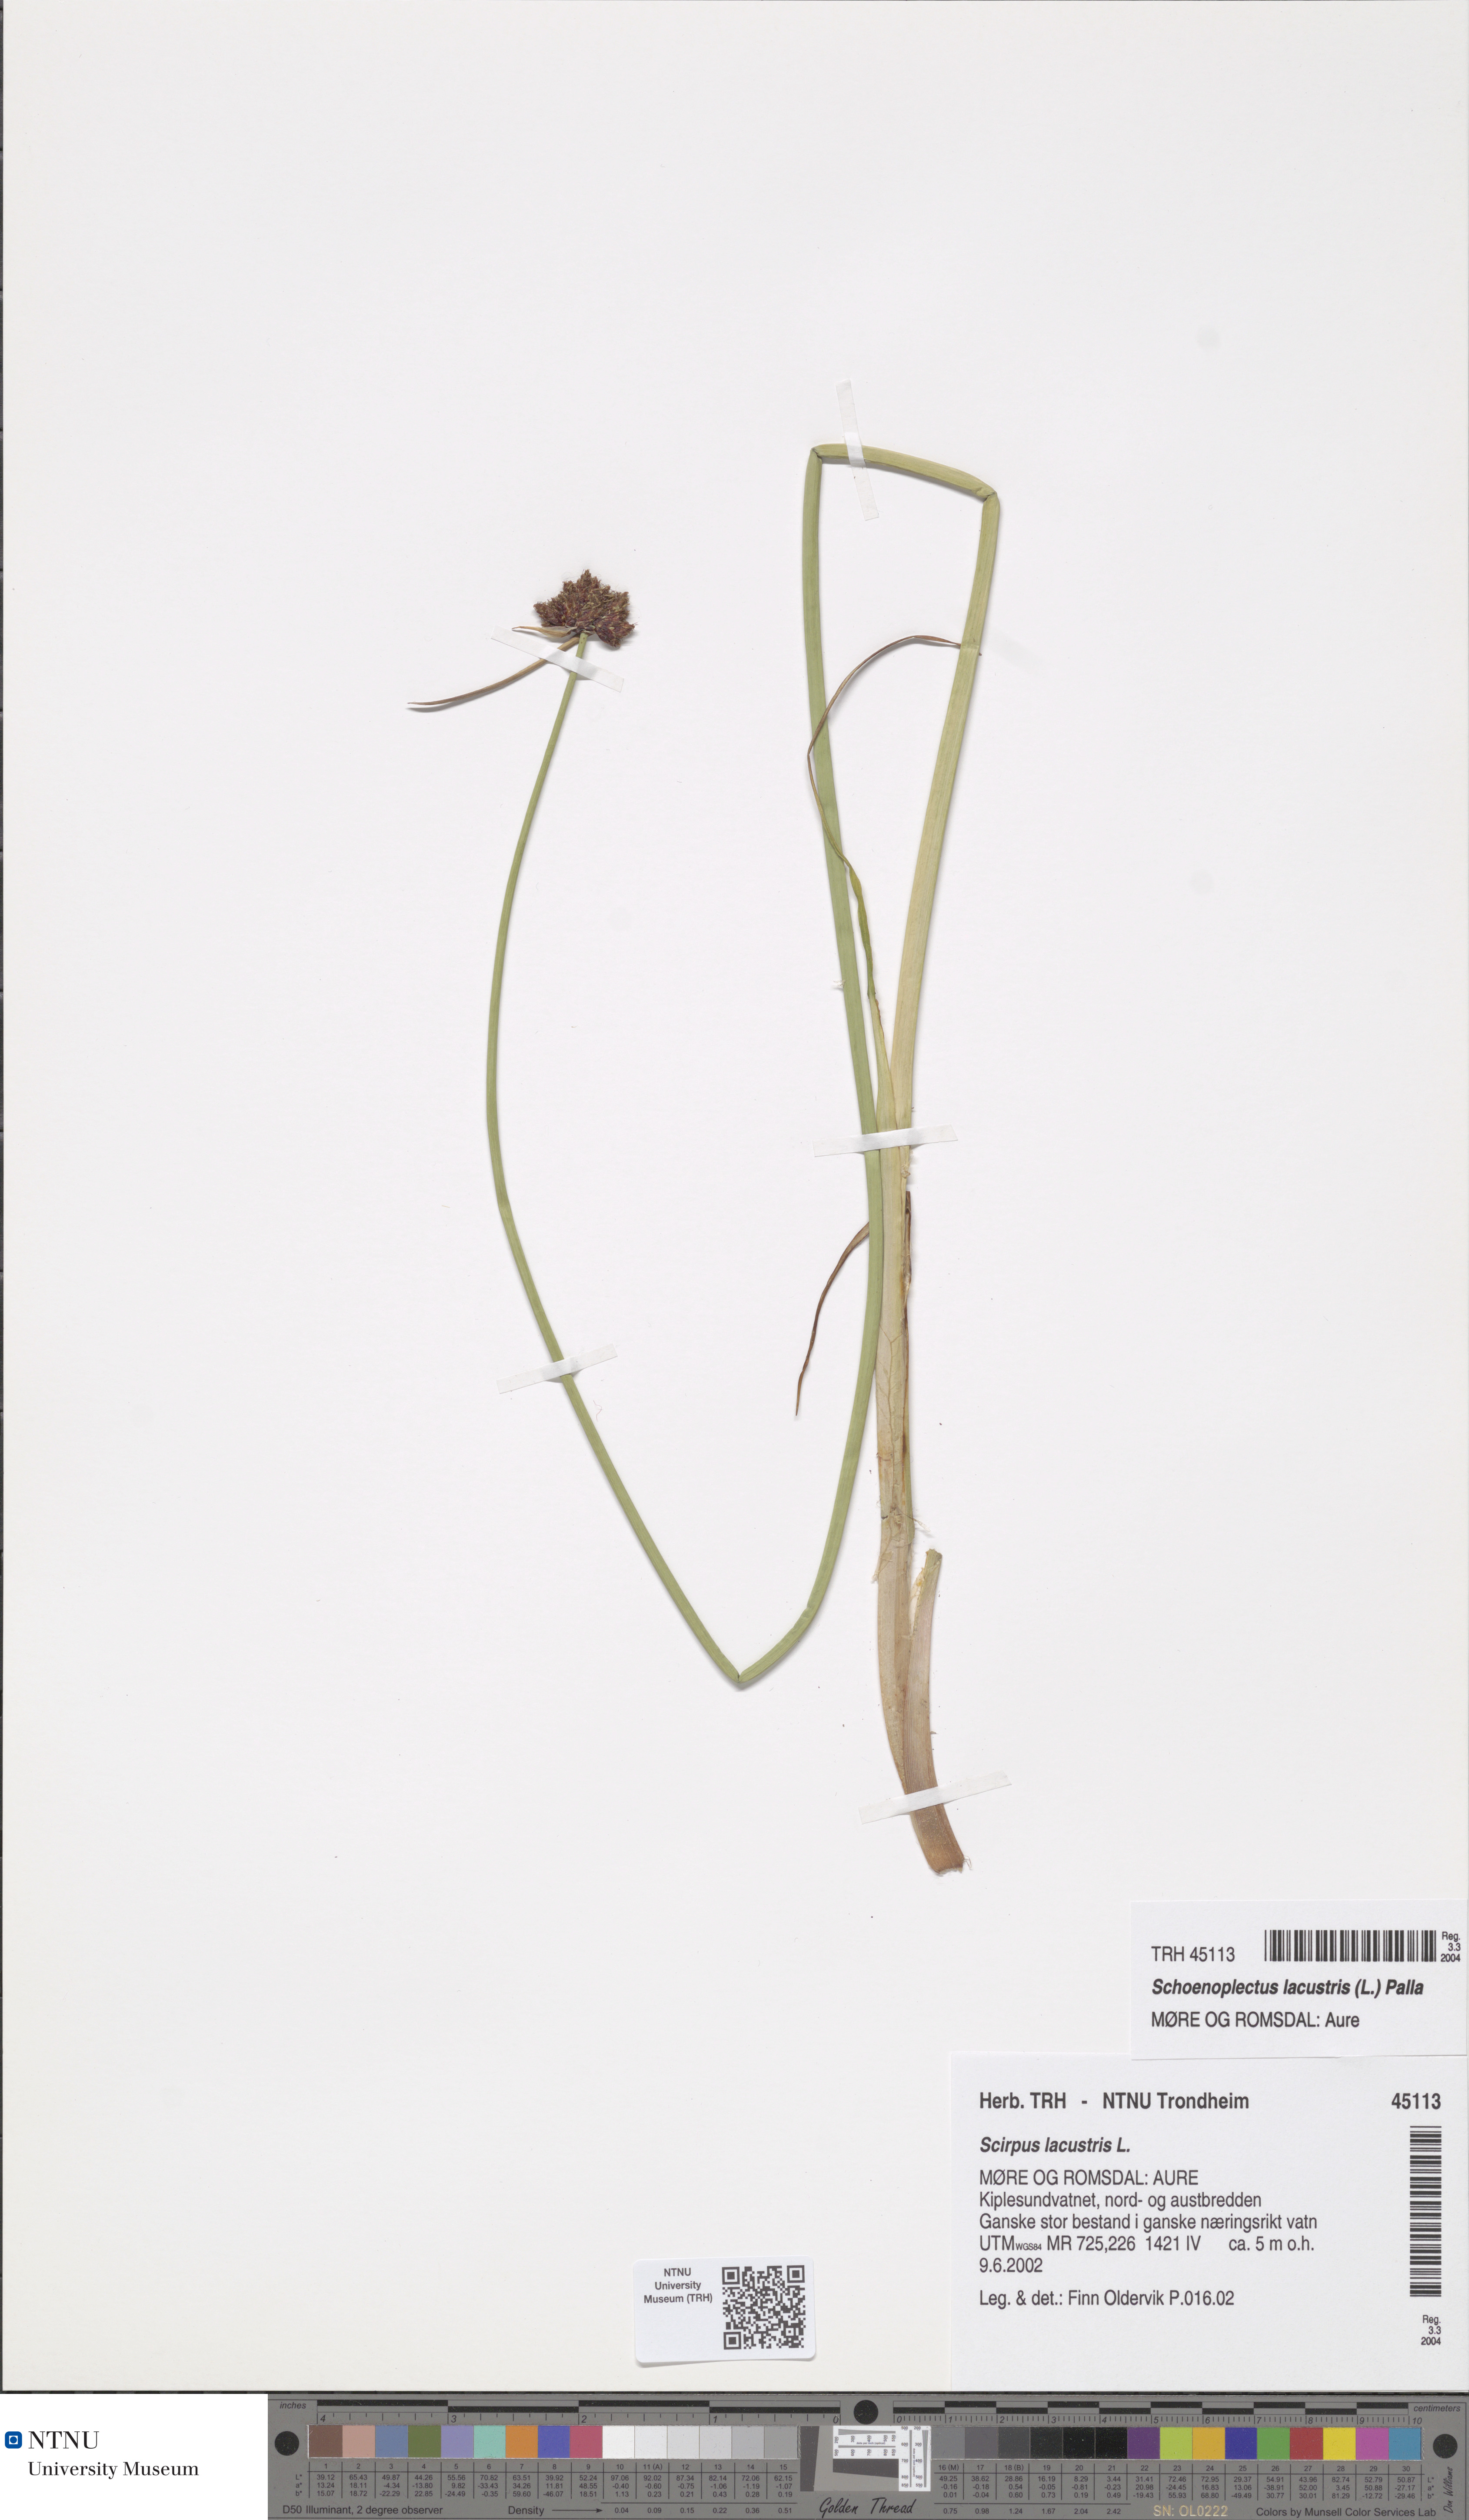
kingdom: Plantae
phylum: Tracheophyta
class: Liliopsida
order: Poales
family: Cyperaceae
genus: Schoenoplectus
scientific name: Schoenoplectus lacustris
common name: Common club-rush
